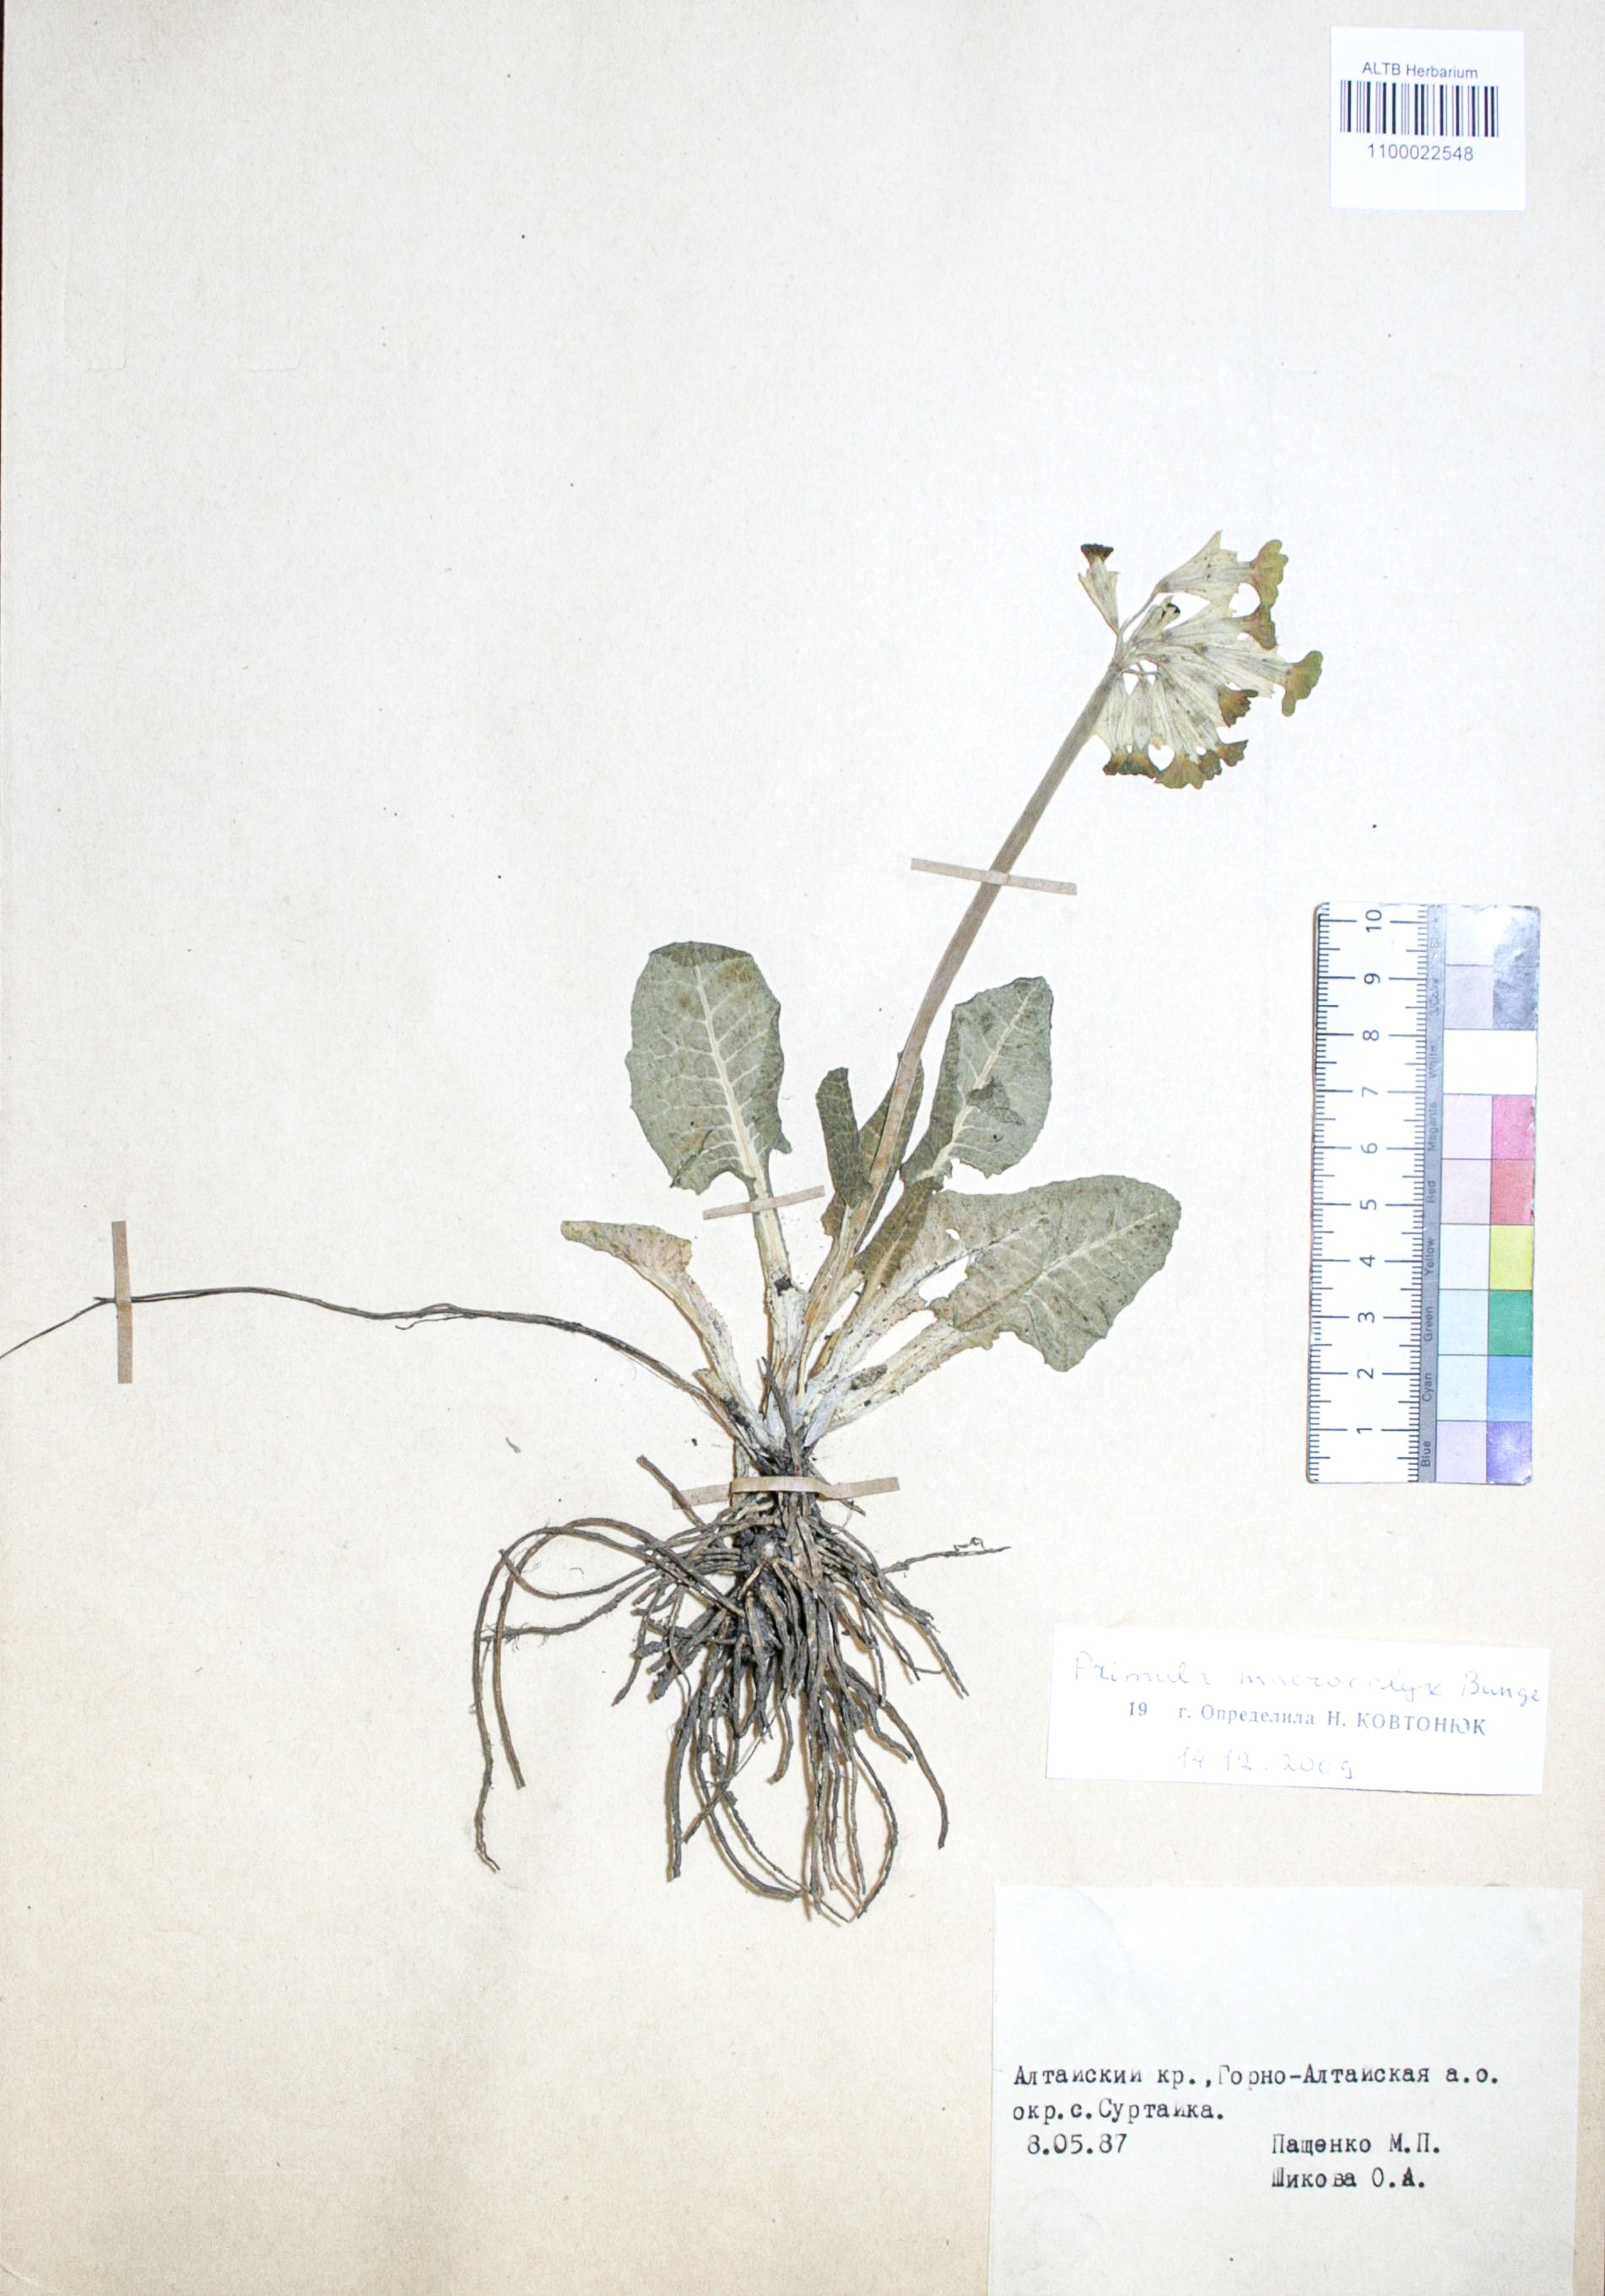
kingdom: Plantae
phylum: Tracheophyta
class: Magnoliopsida
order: Ericales
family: Primulaceae
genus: Primula
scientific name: Primula veris
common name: Cowslip
